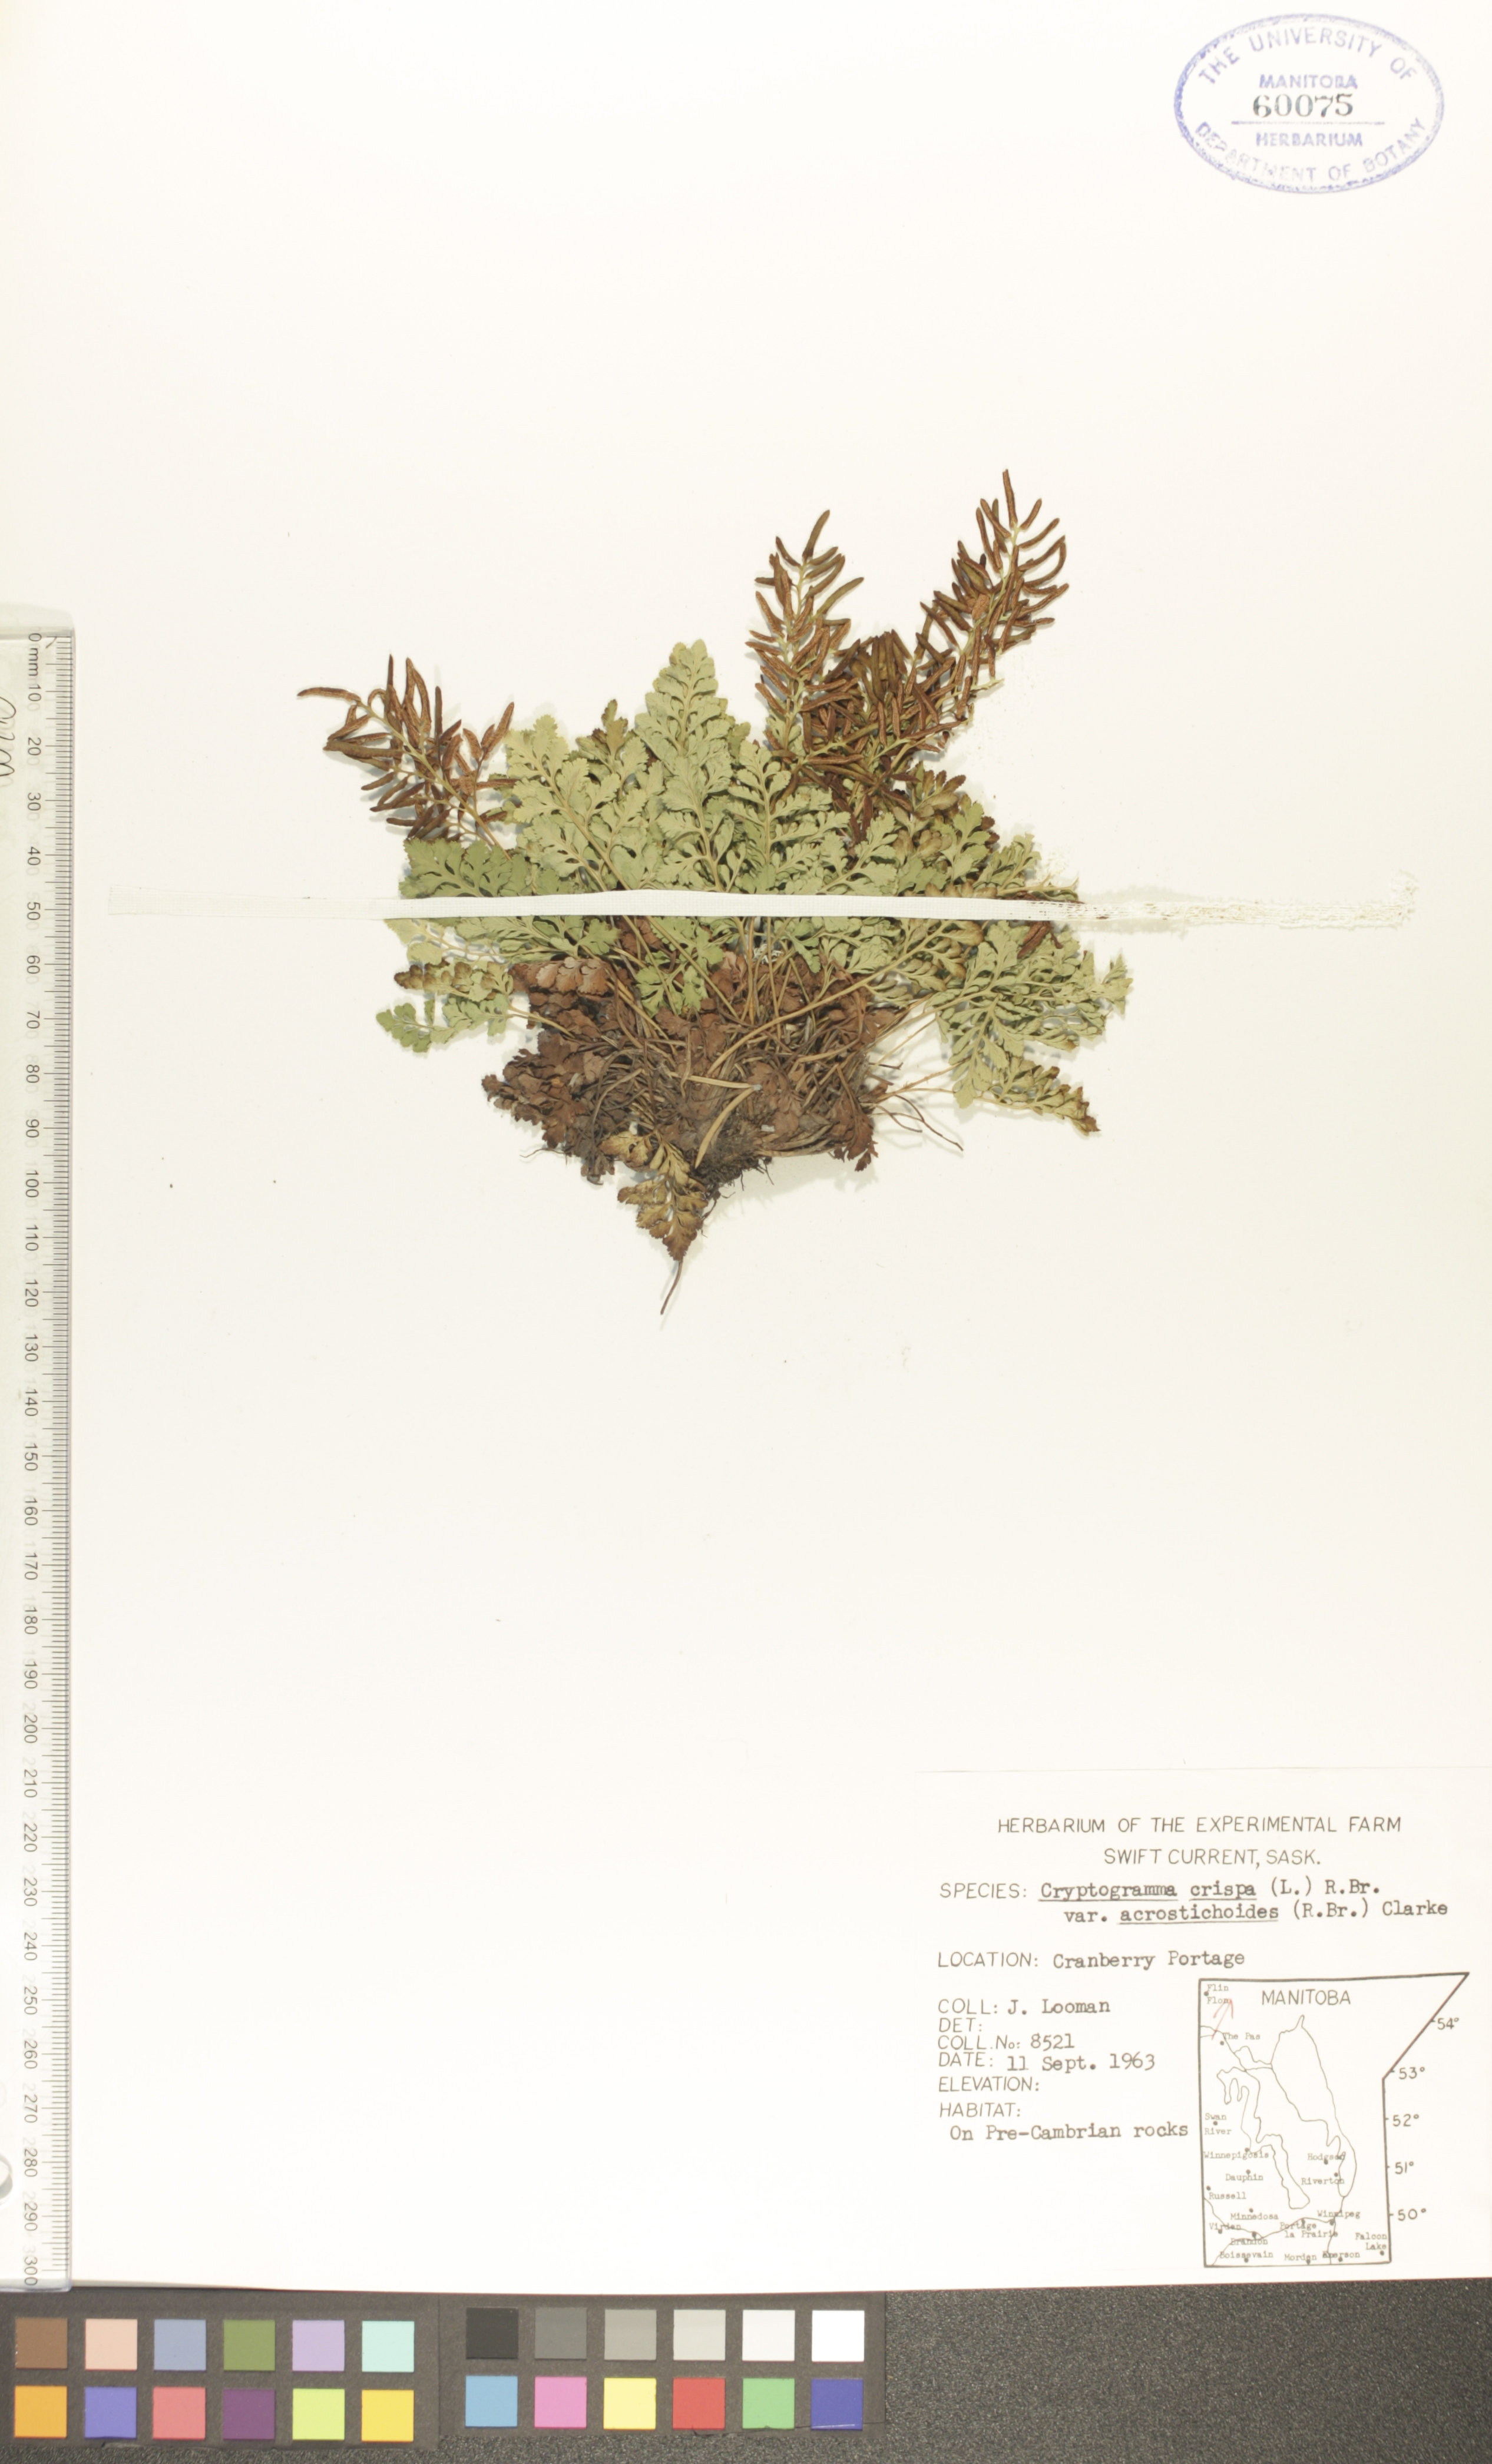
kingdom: Plantae
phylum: Tracheophyta
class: Polypodiopsida
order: Polypodiales
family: Pteridaceae
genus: Cryptogramma
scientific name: Cryptogramma acrostichoides
